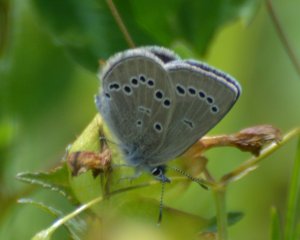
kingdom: Animalia
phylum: Arthropoda
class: Insecta
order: Lepidoptera
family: Lycaenidae
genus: Glaucopsyche
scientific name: Glaucopsyche lygdamus
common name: Silvery Blue
